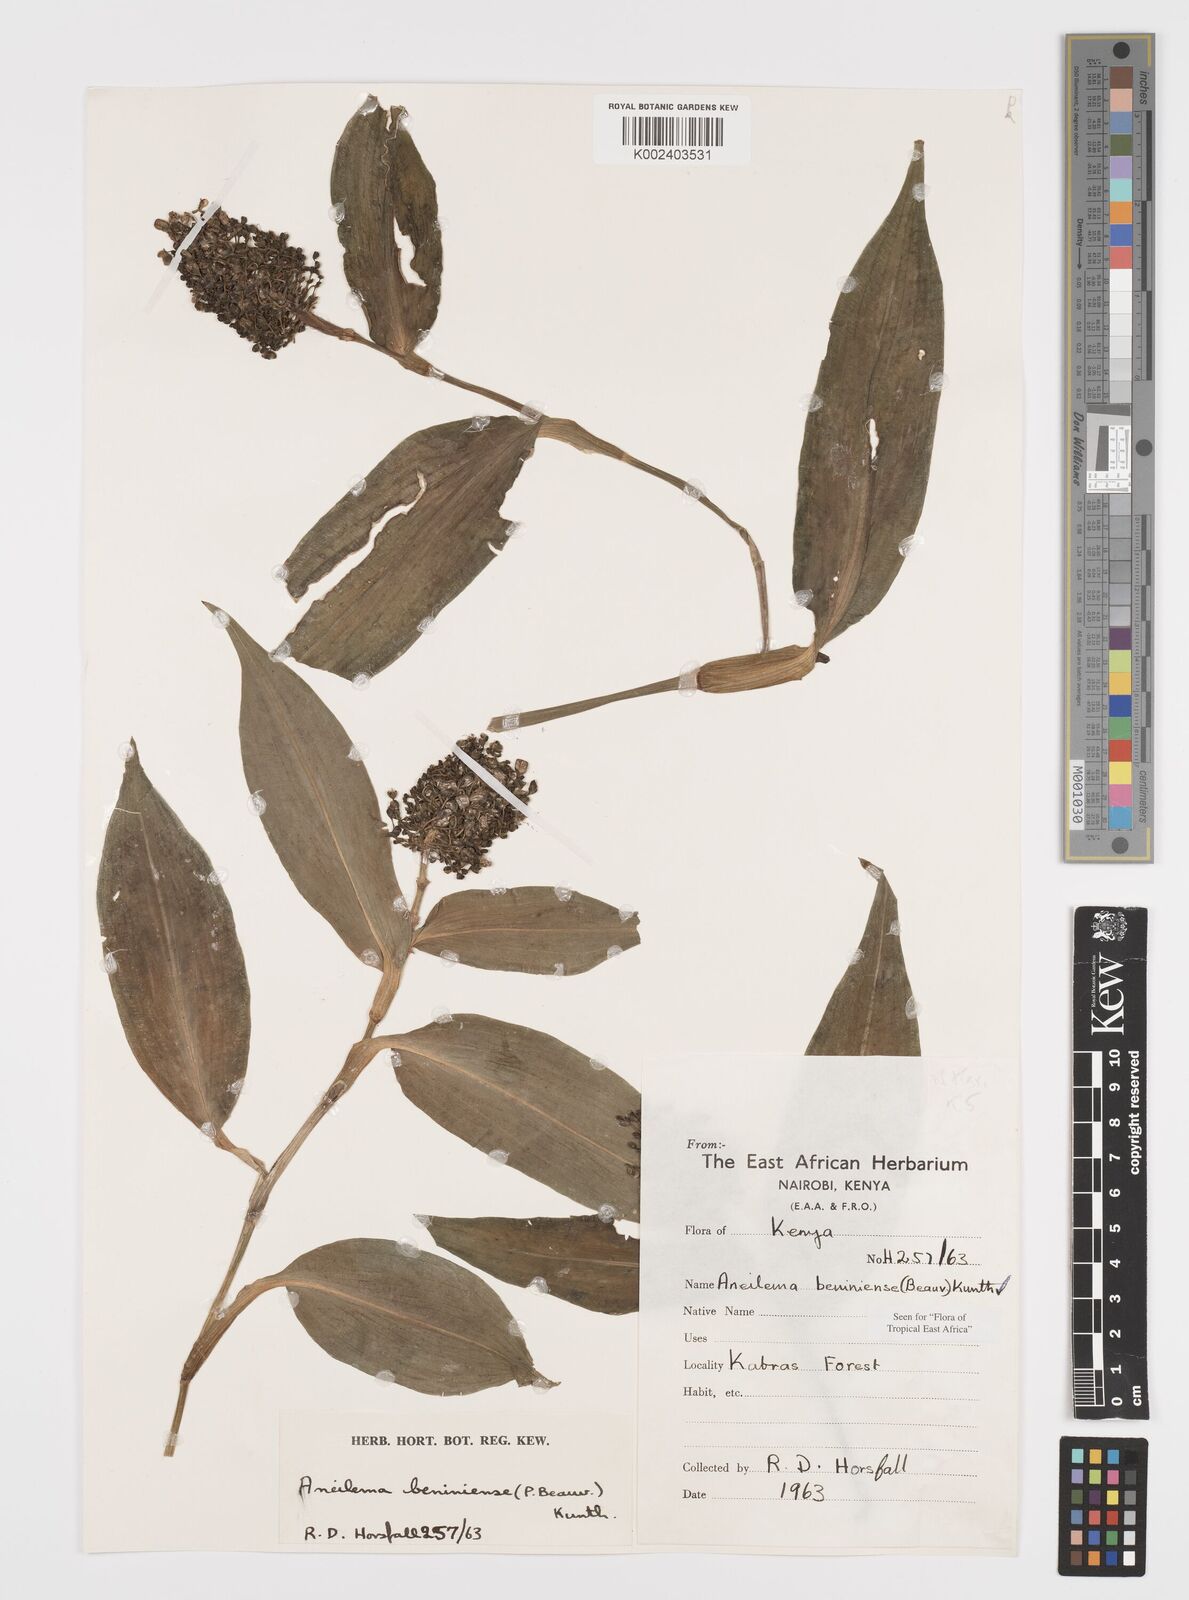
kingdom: Plantae
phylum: Tracheophyta
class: Liliopsida
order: Commelinales
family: Commelinaceae
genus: Aneilema
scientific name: Aneilema beniniense
